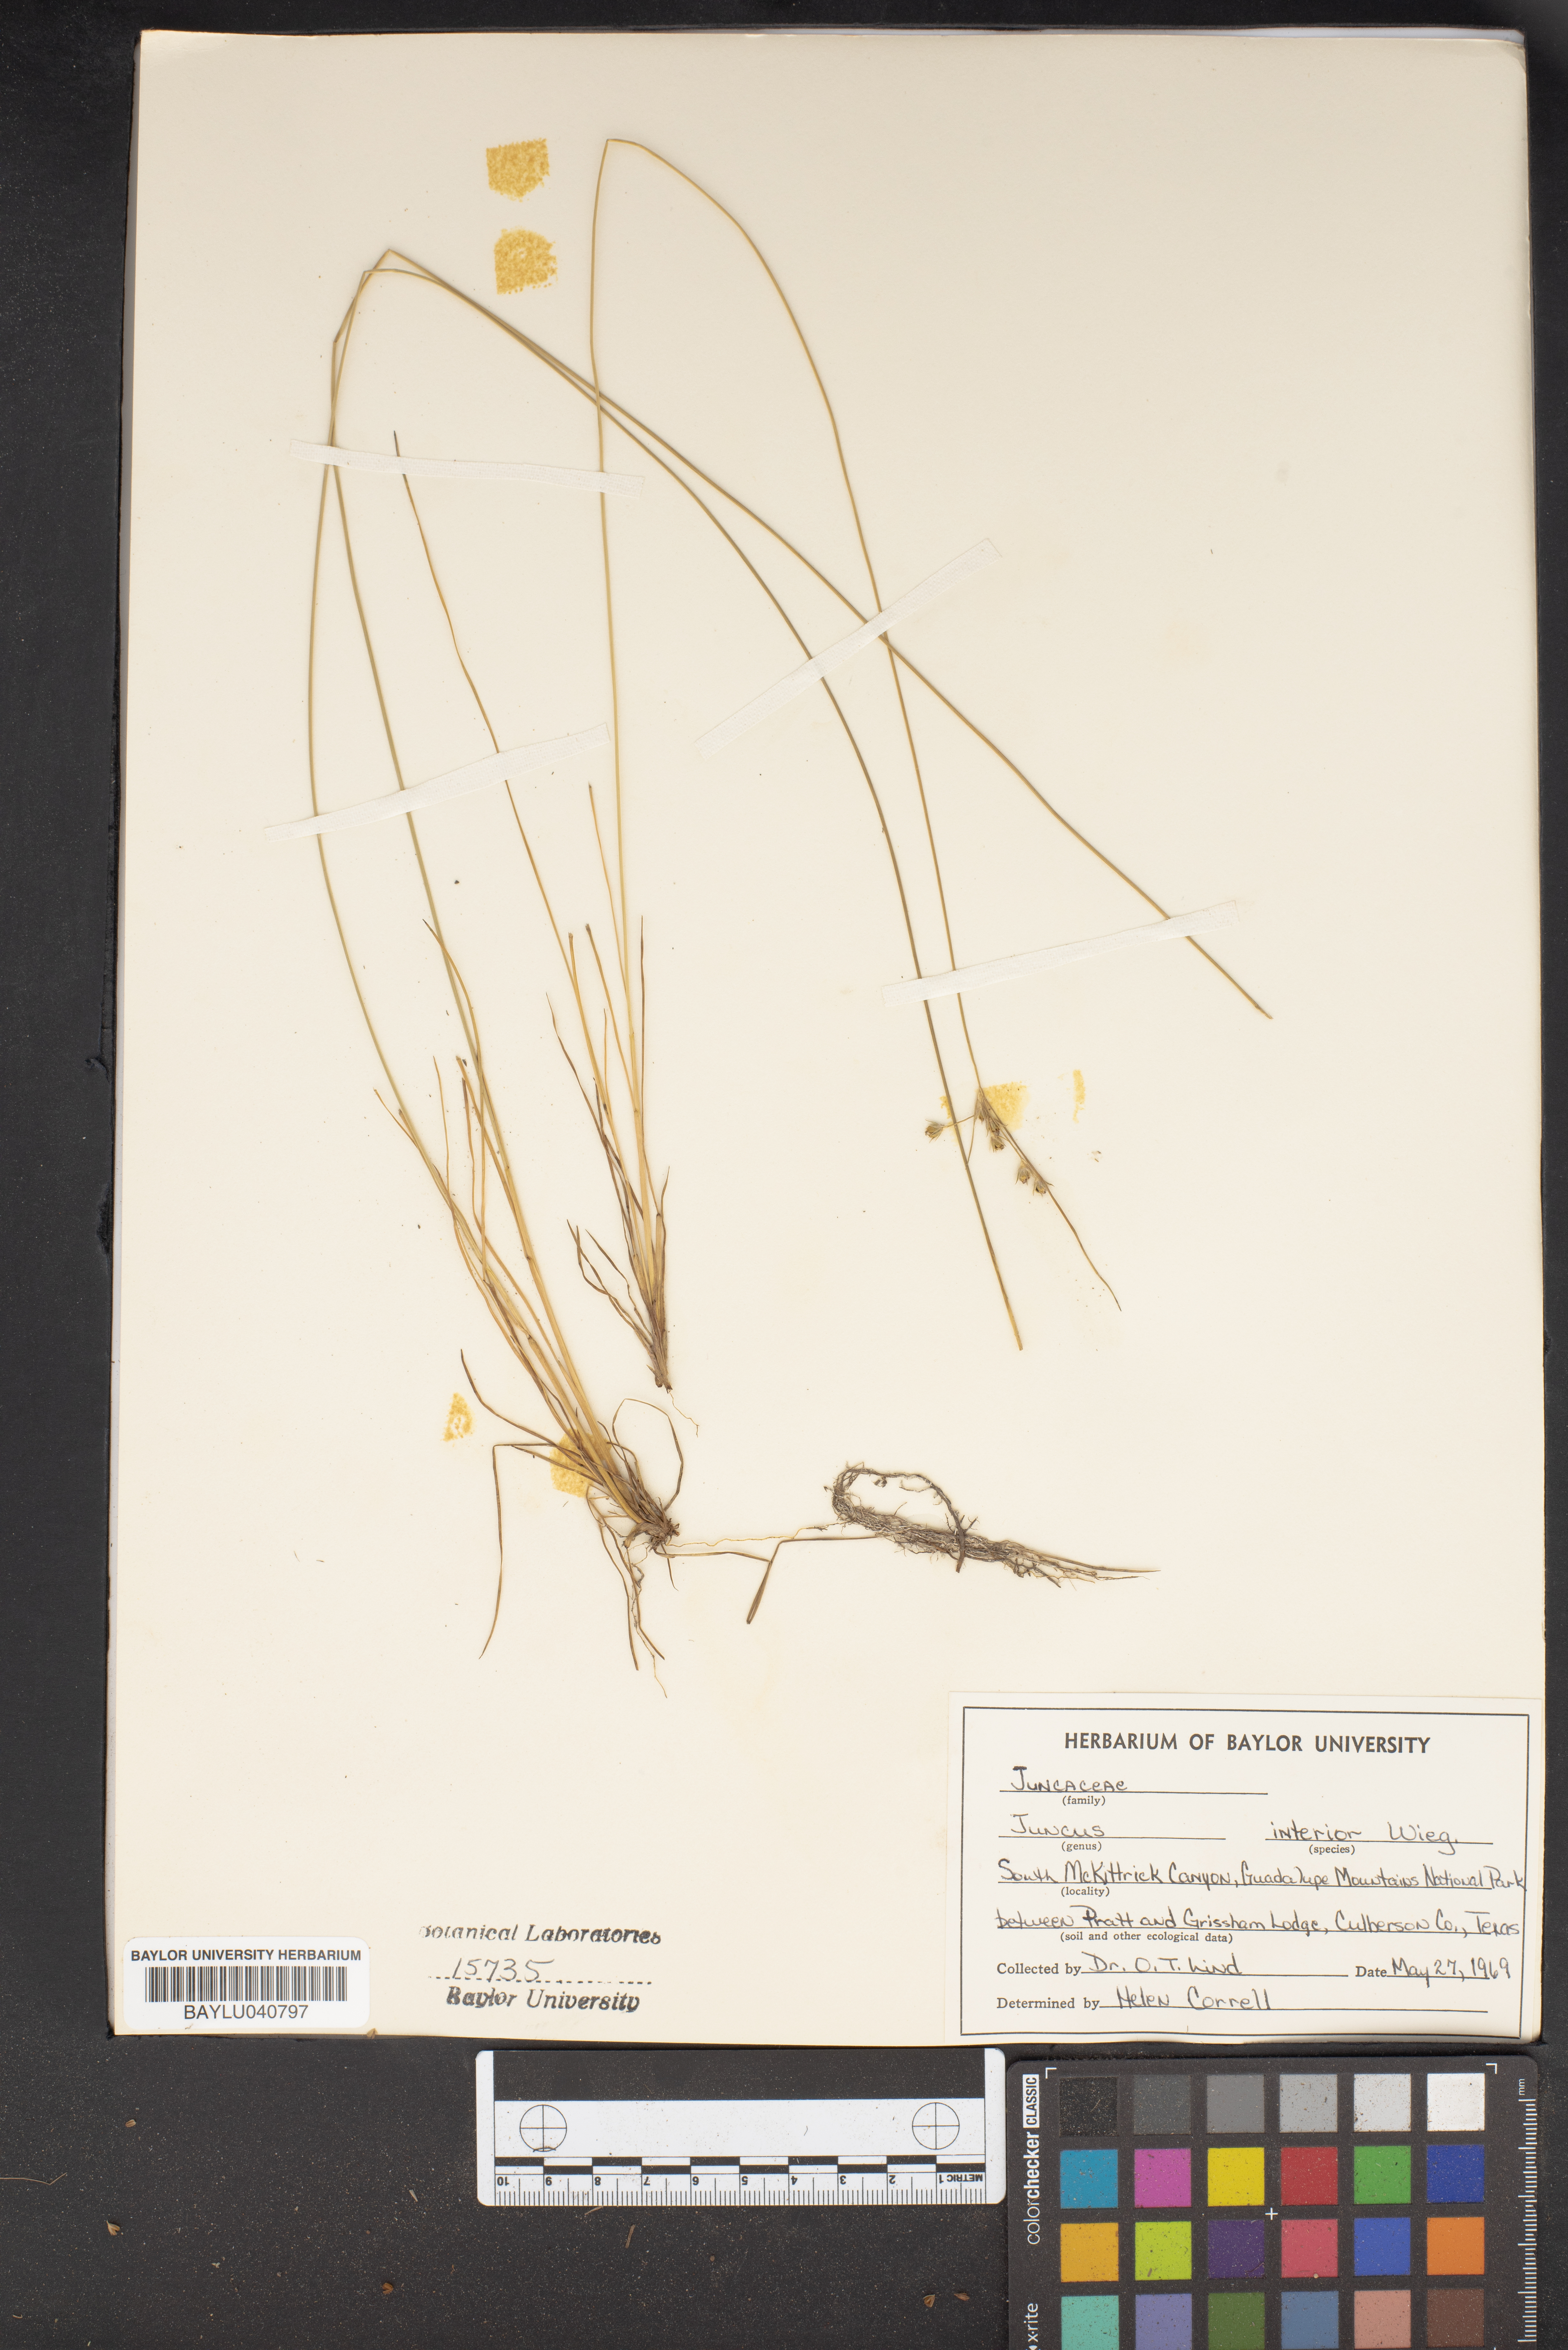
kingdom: Plantae
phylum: Tracheophyta
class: Liliopsida
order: Poales
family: Juncaceae
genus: Juncus
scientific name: Juncus interior
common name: Interior rush
